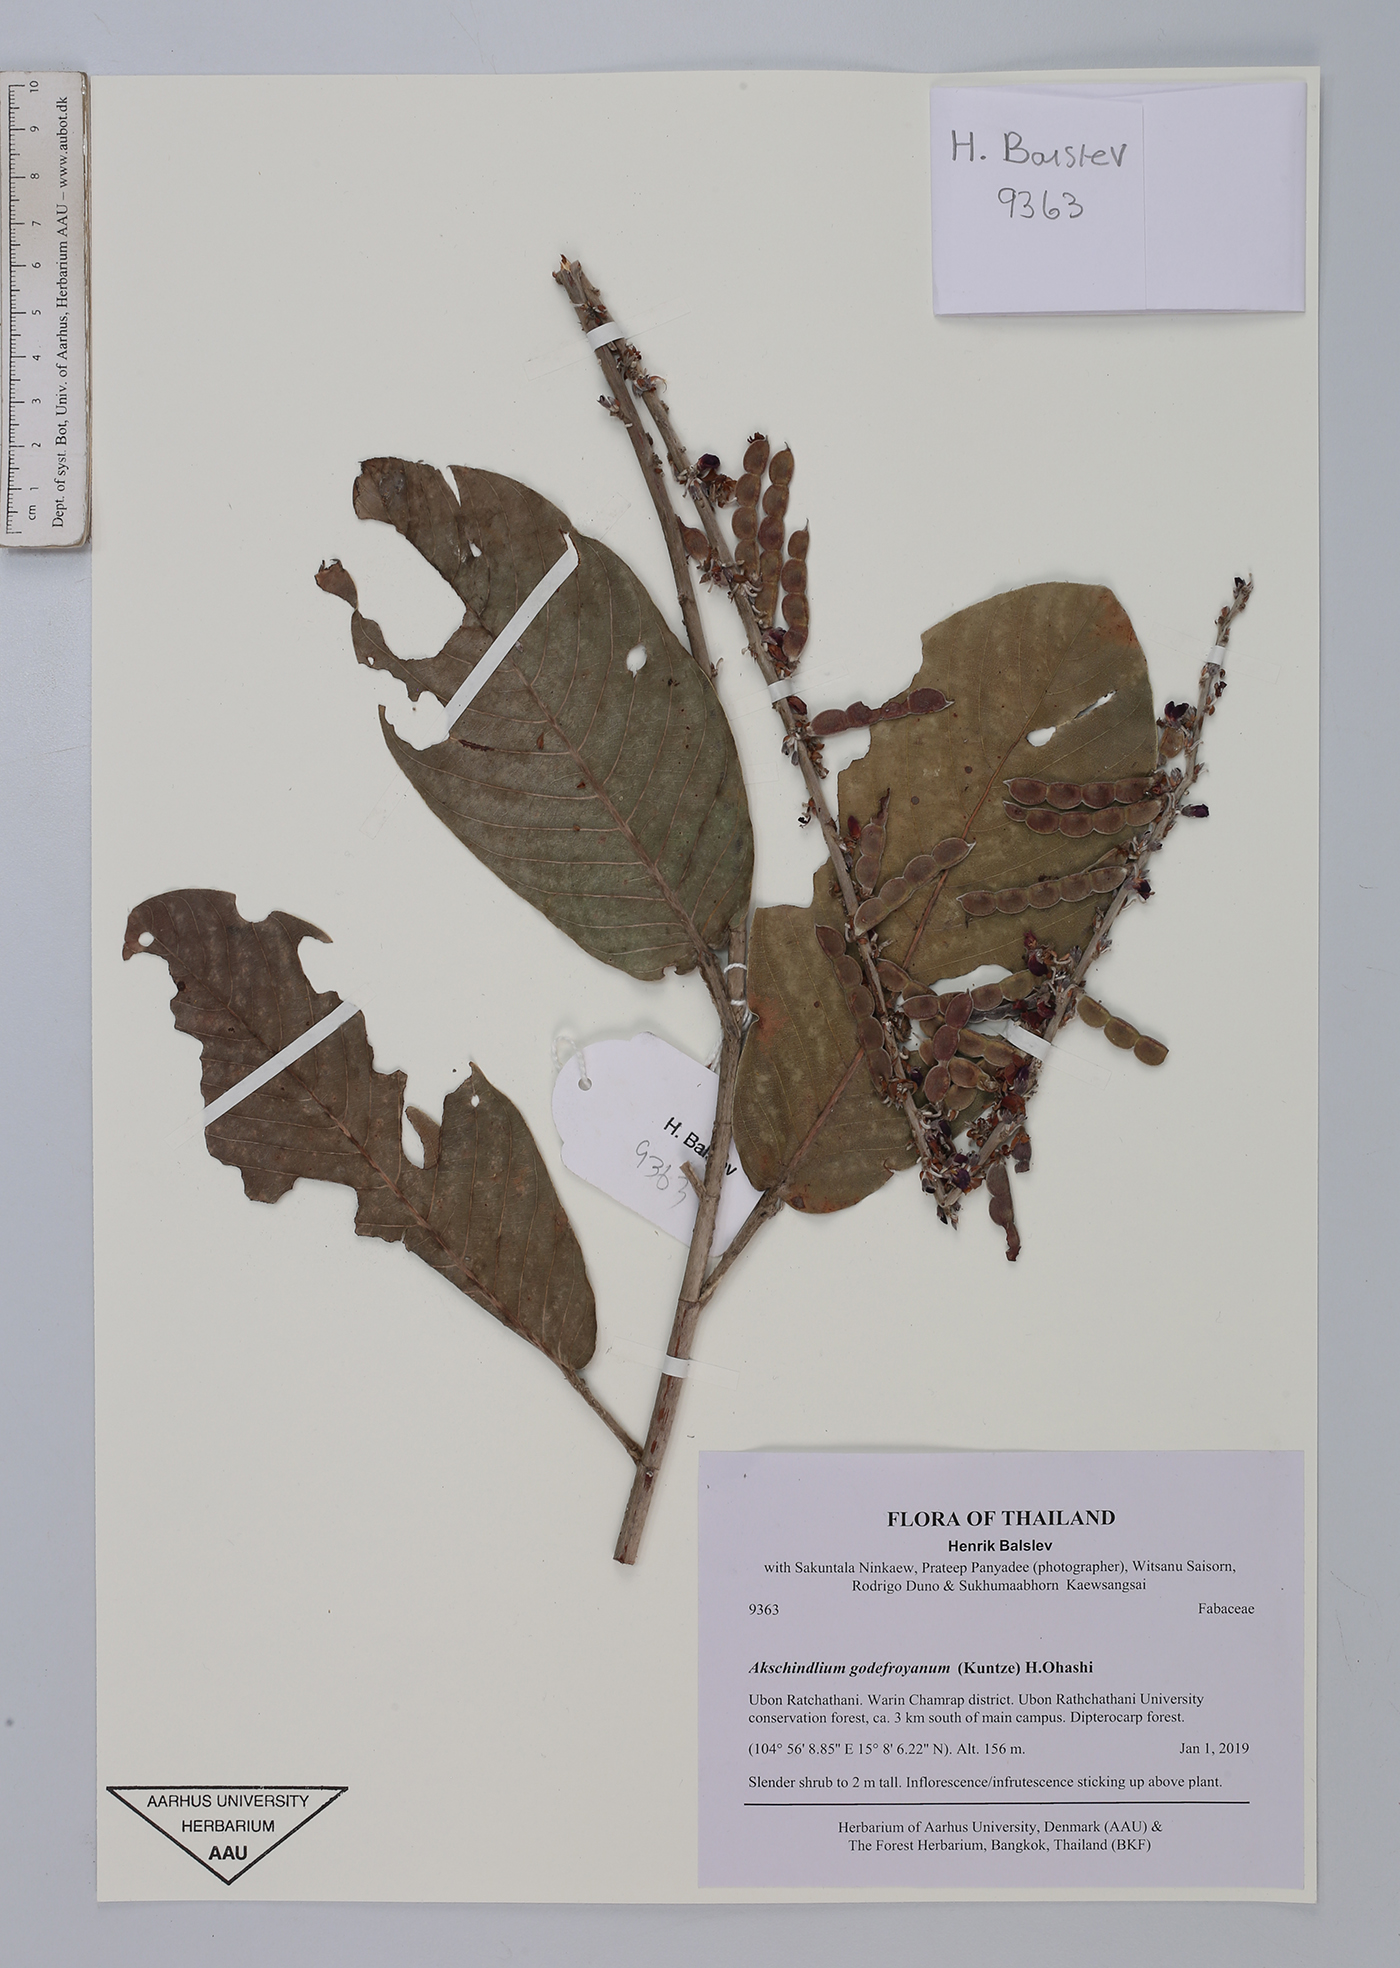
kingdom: Plantae
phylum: Tracheophyta
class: Magnoliopsida
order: Fabales
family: Fabaceae
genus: Akschindlium
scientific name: Akschindlium godefroyanum
